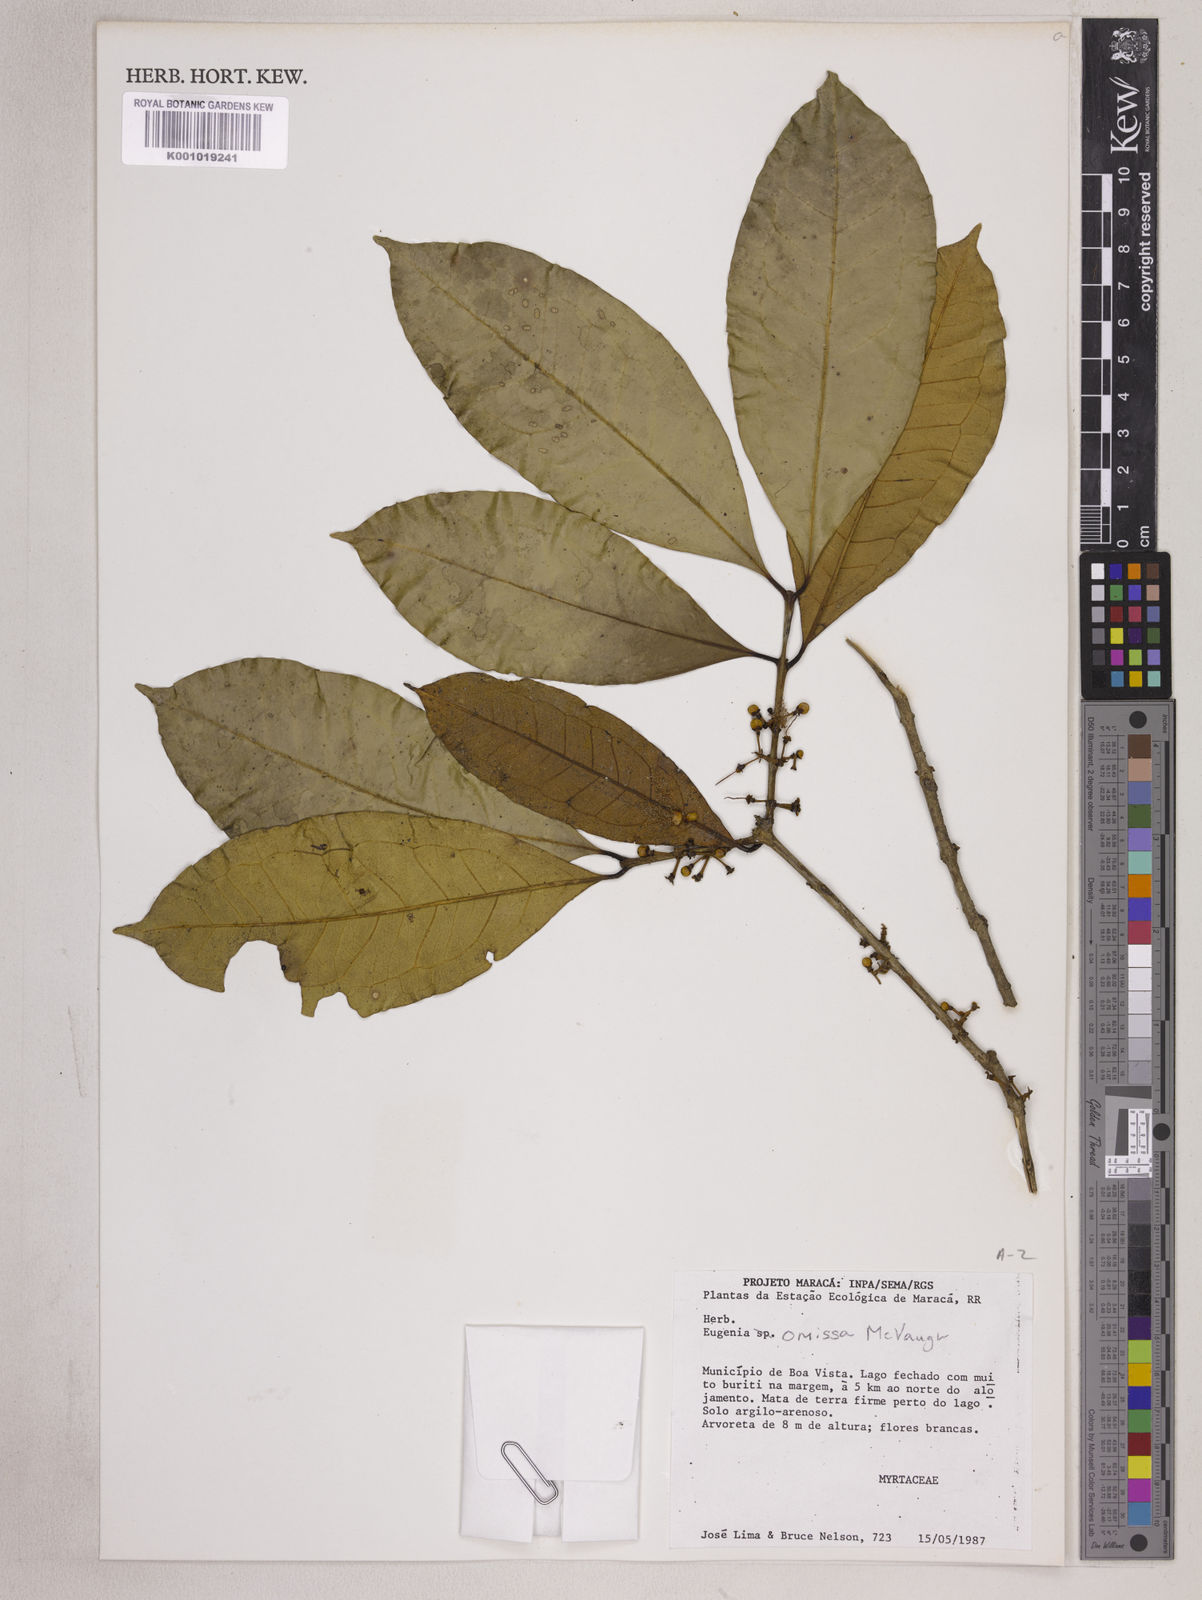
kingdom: Plantae
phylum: Tracheophyta
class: Magnoliopsida
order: Myrtales
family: Myrtaceae
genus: Eugenia
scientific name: Eugenia omissa
